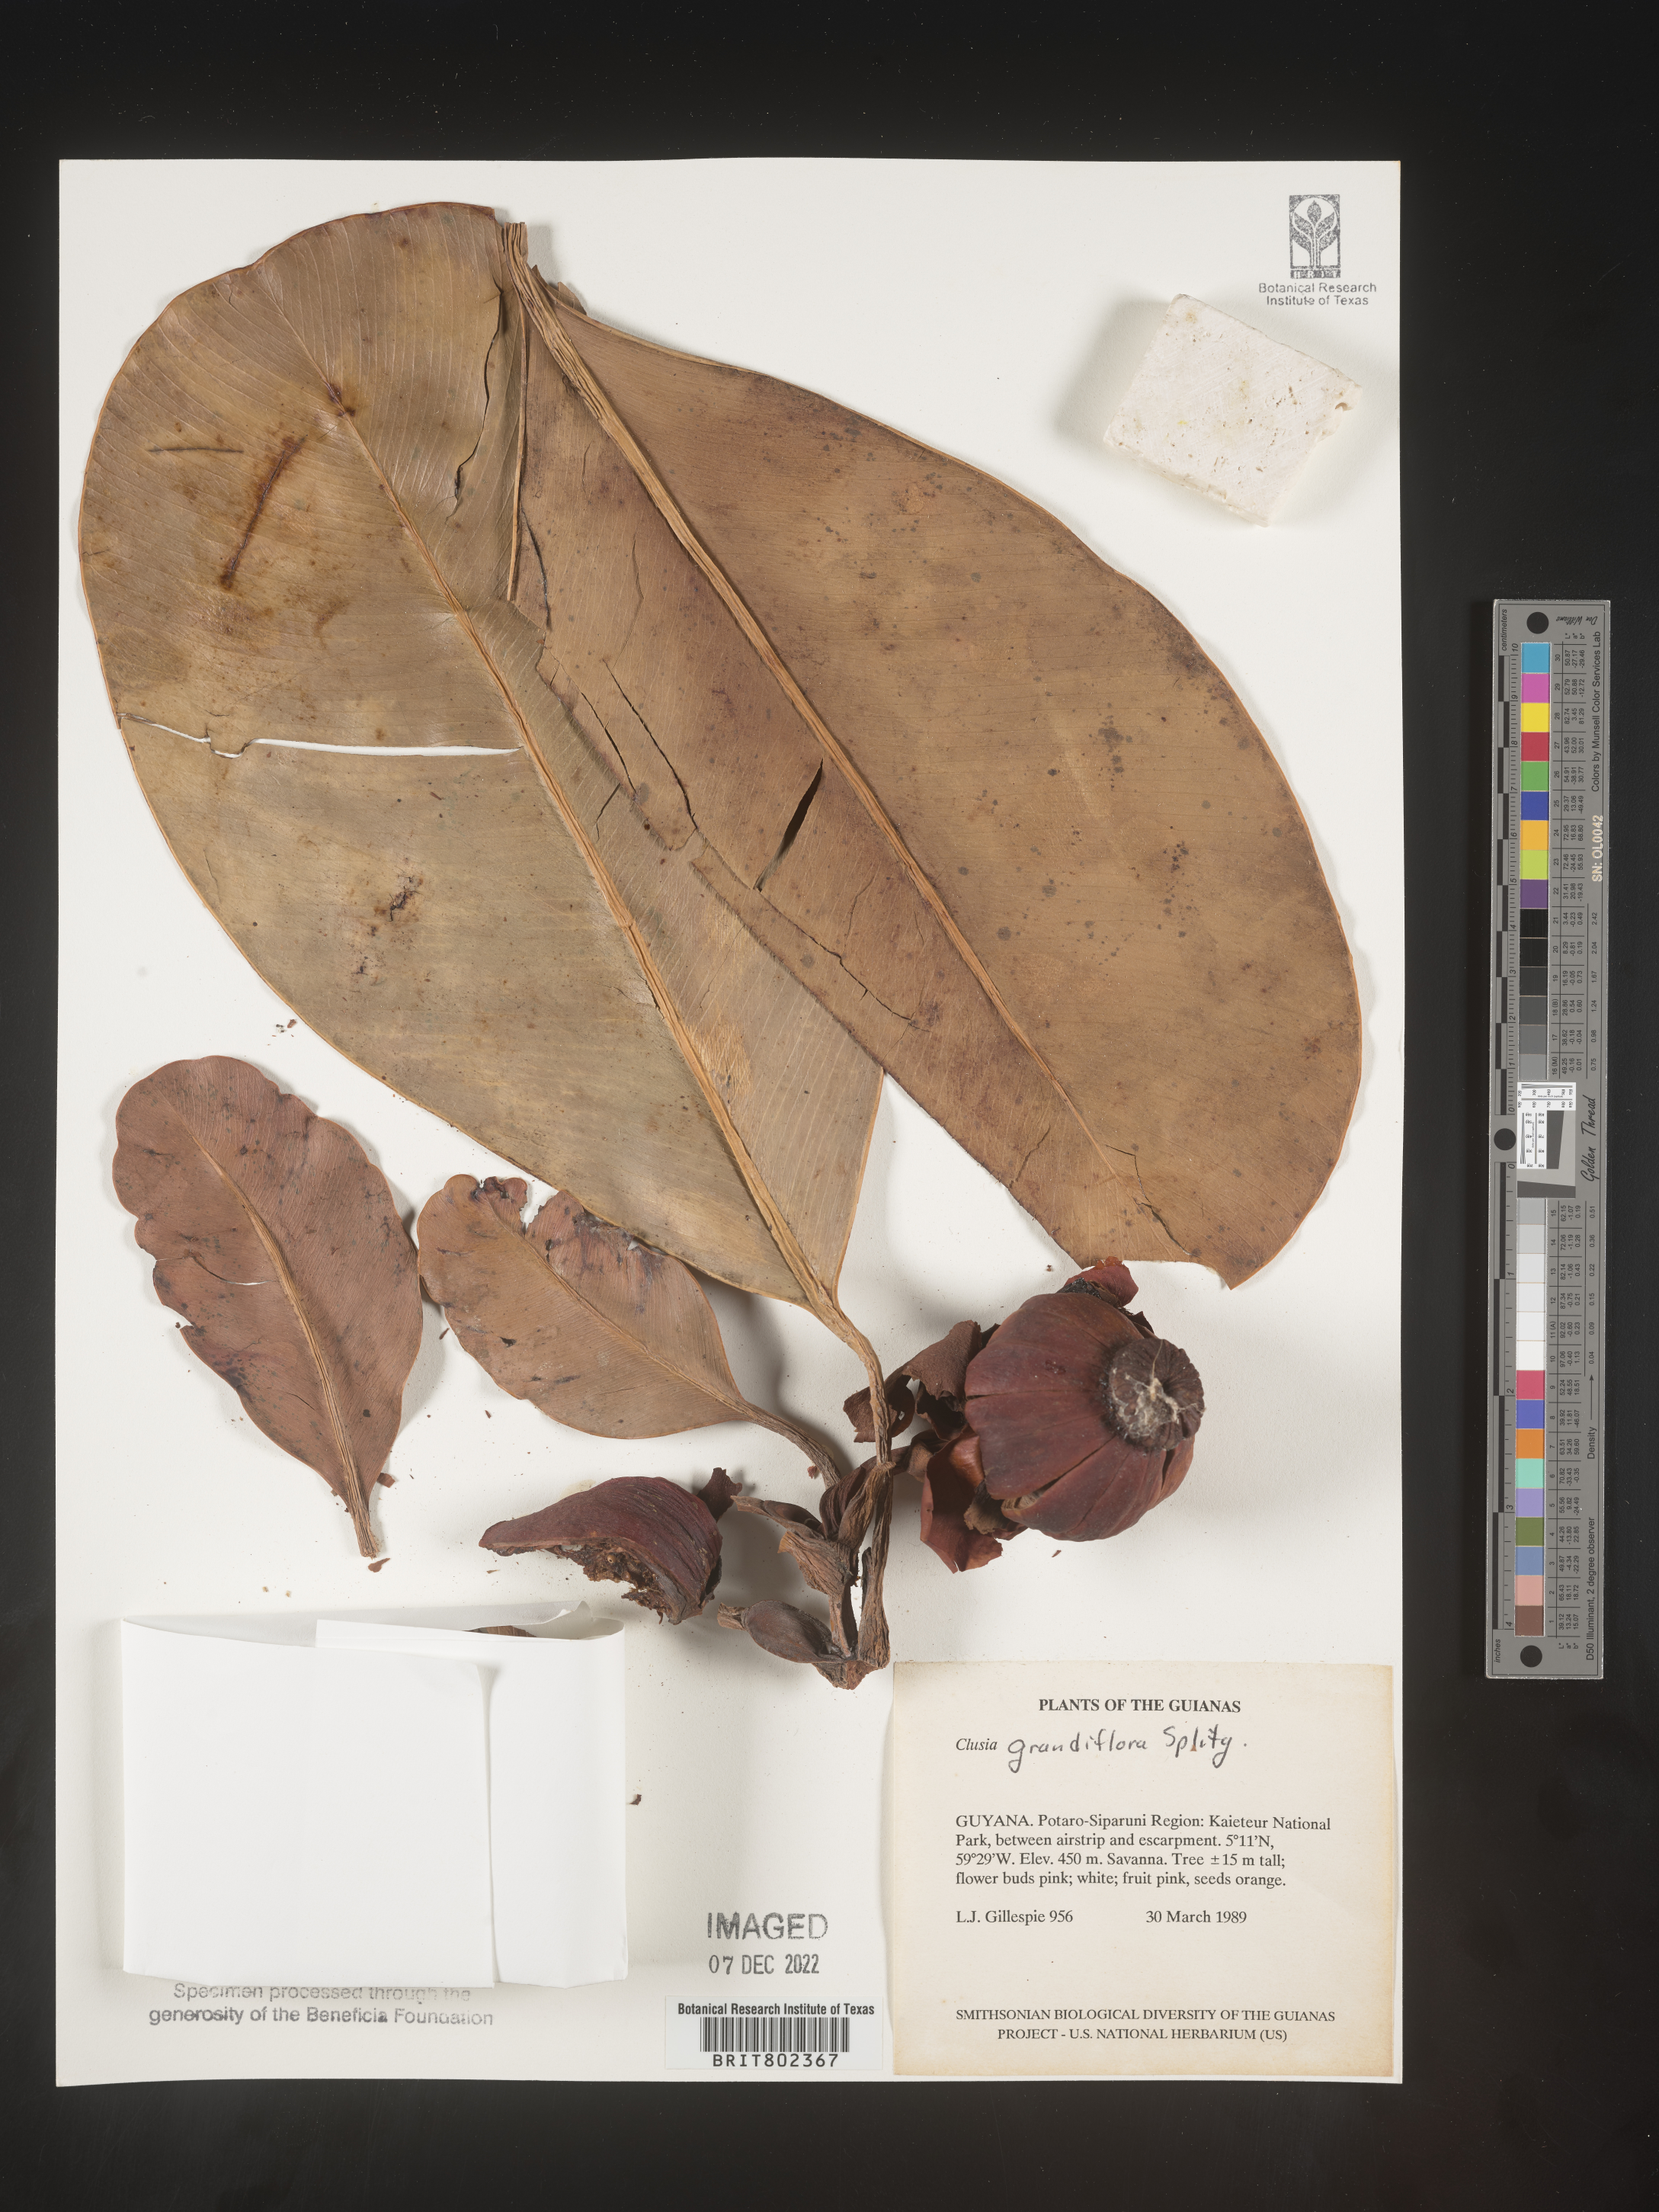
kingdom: Plantae
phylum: Tracheophyta
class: Magnoliopsida
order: Malpighiales
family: Clusiaceae
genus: Clusia
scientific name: Clusia grandiflora
